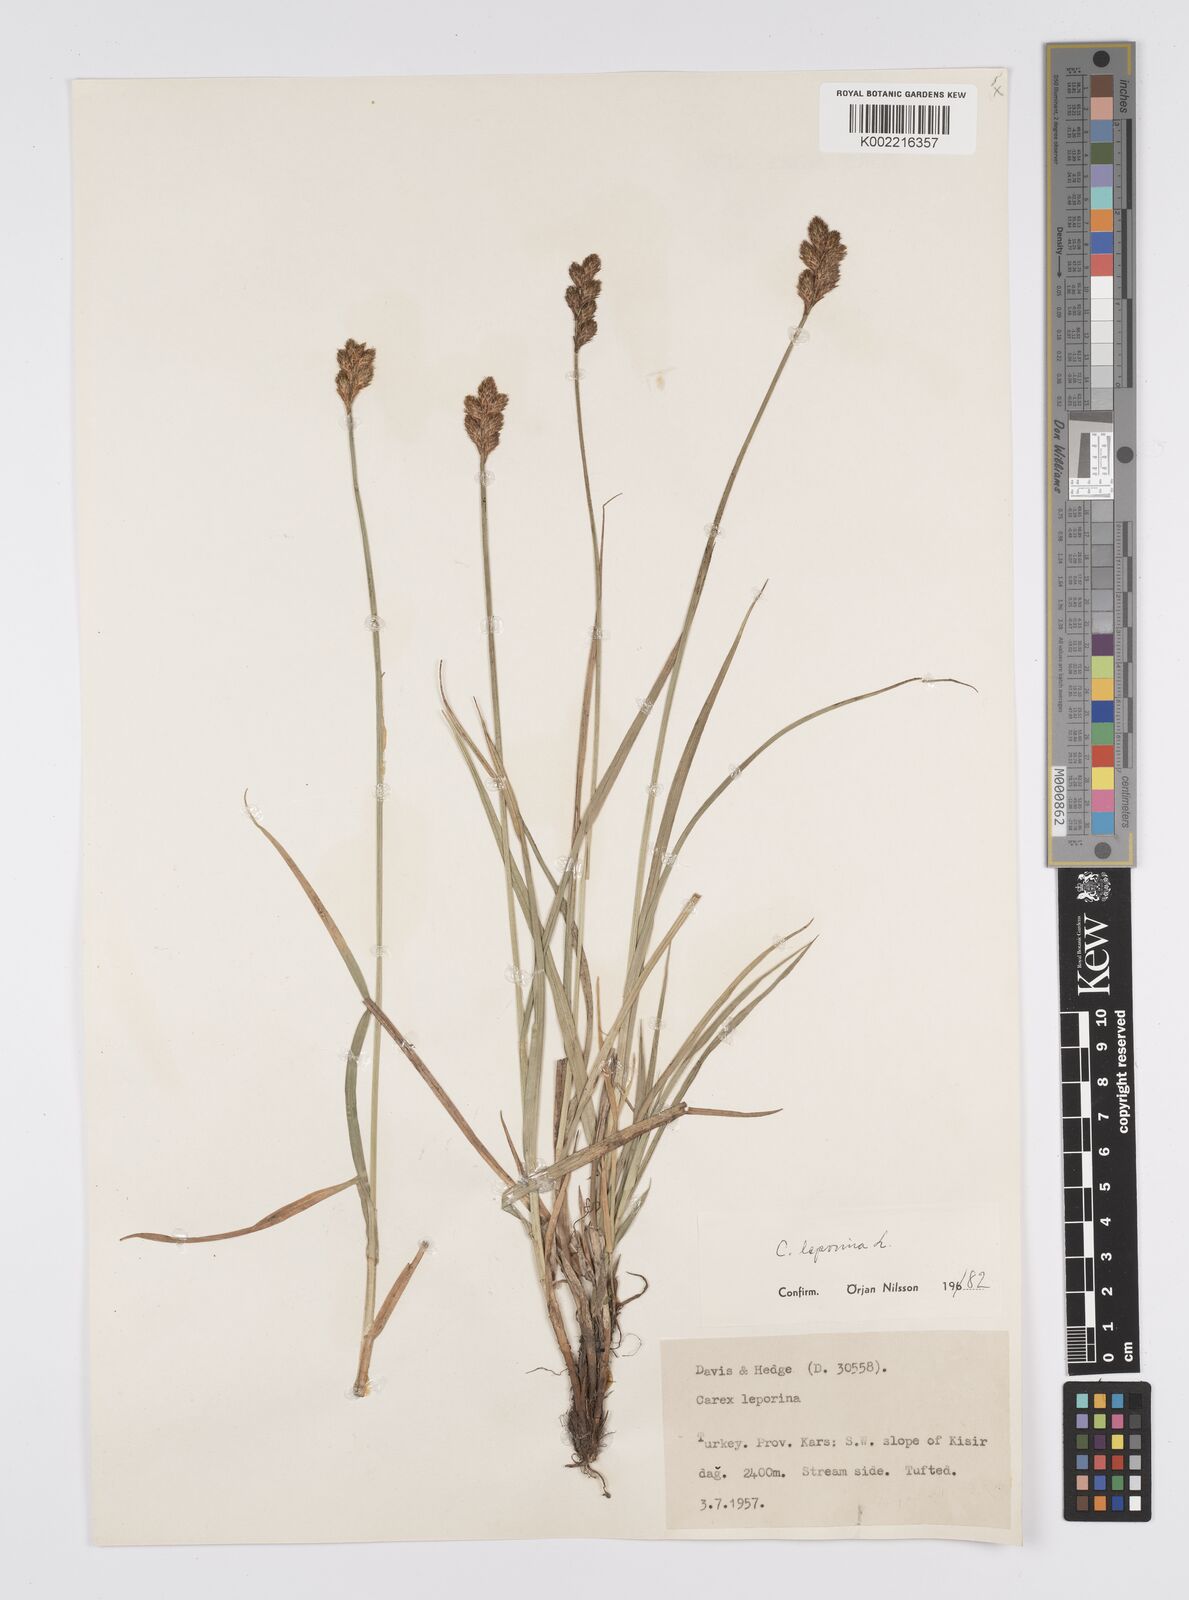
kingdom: Plantae
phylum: Tracheophyta
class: Liliopsida
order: Poales
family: Cyperaceae
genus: Carex
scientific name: Carex leporina
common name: Oval sedge
